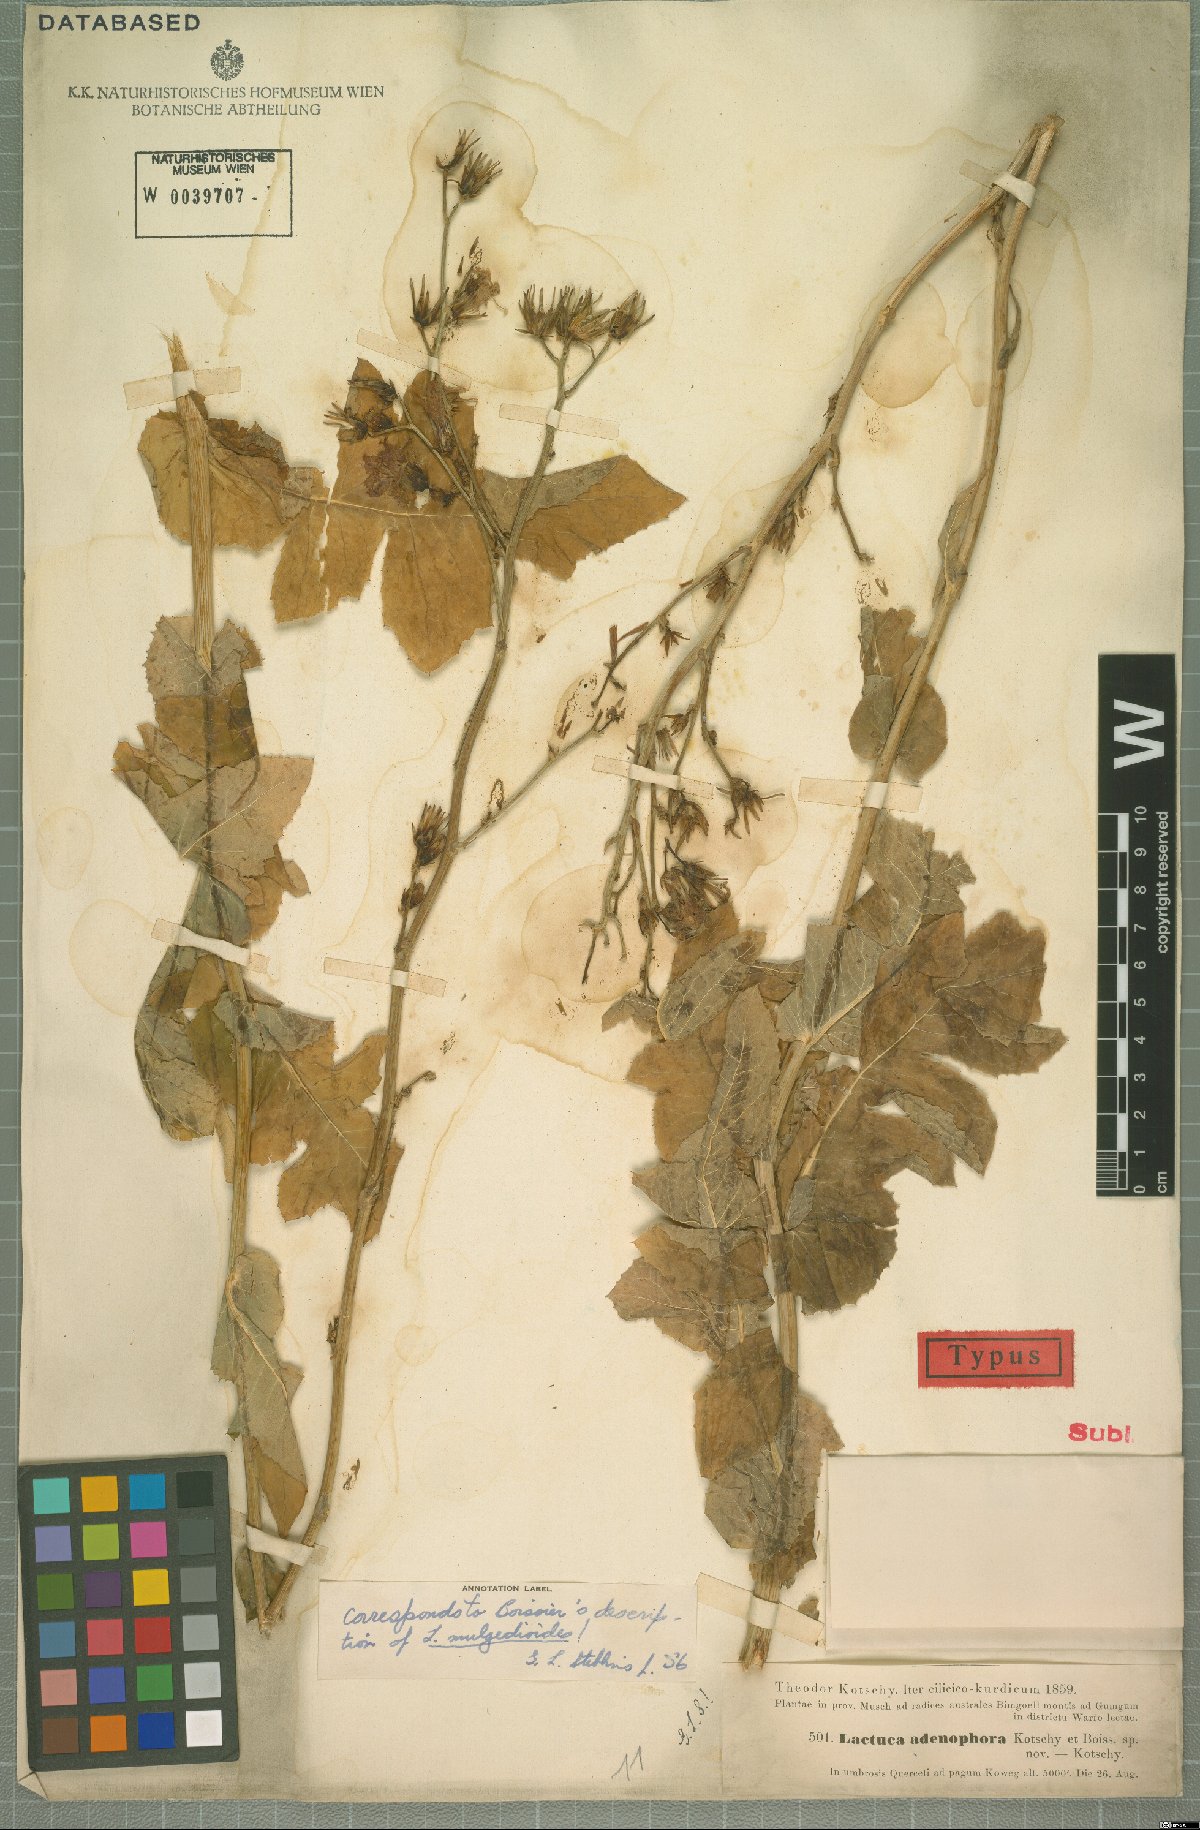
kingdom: Plantae
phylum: Tracheophyta
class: Magnoliopsida
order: Asterales
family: Asteraceae
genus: Lactuca
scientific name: Lactuca adenophora
